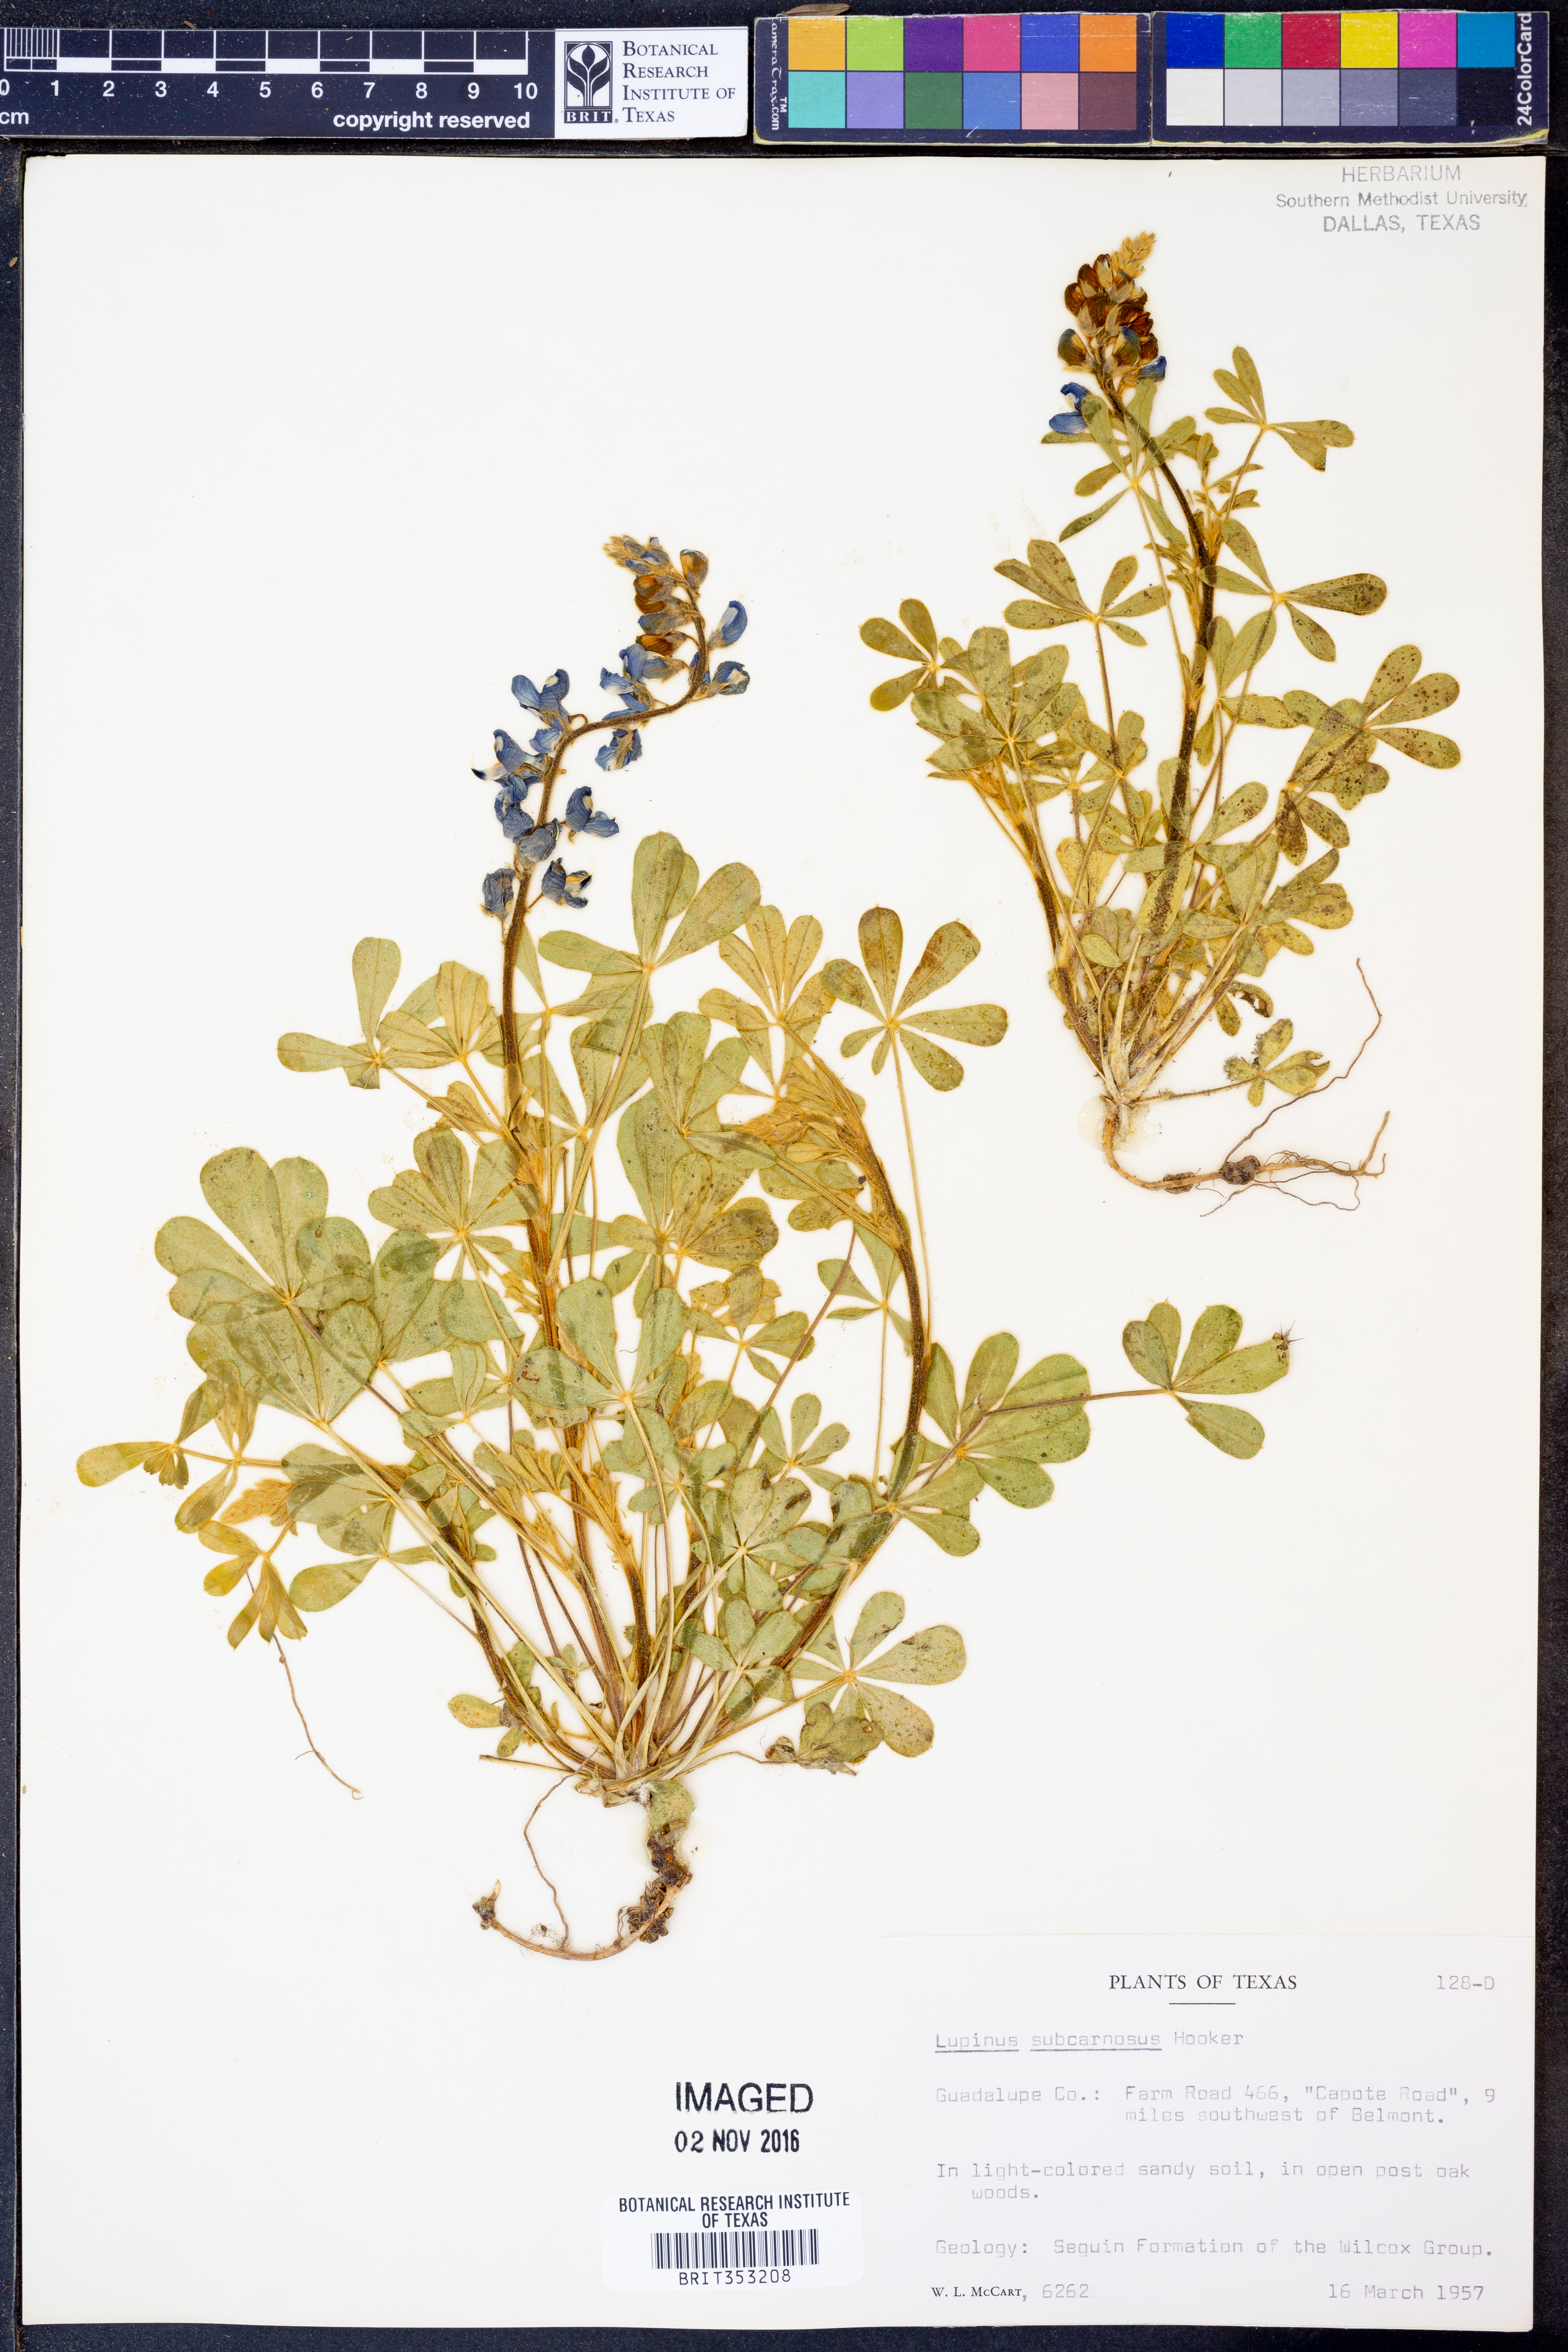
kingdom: Plantae
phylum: Tracheophyta
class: Magnoliopsida
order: Fabales
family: Fabaceae
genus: Lupinus
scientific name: Lupinus subcarnosus
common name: Texas bluebonnet
